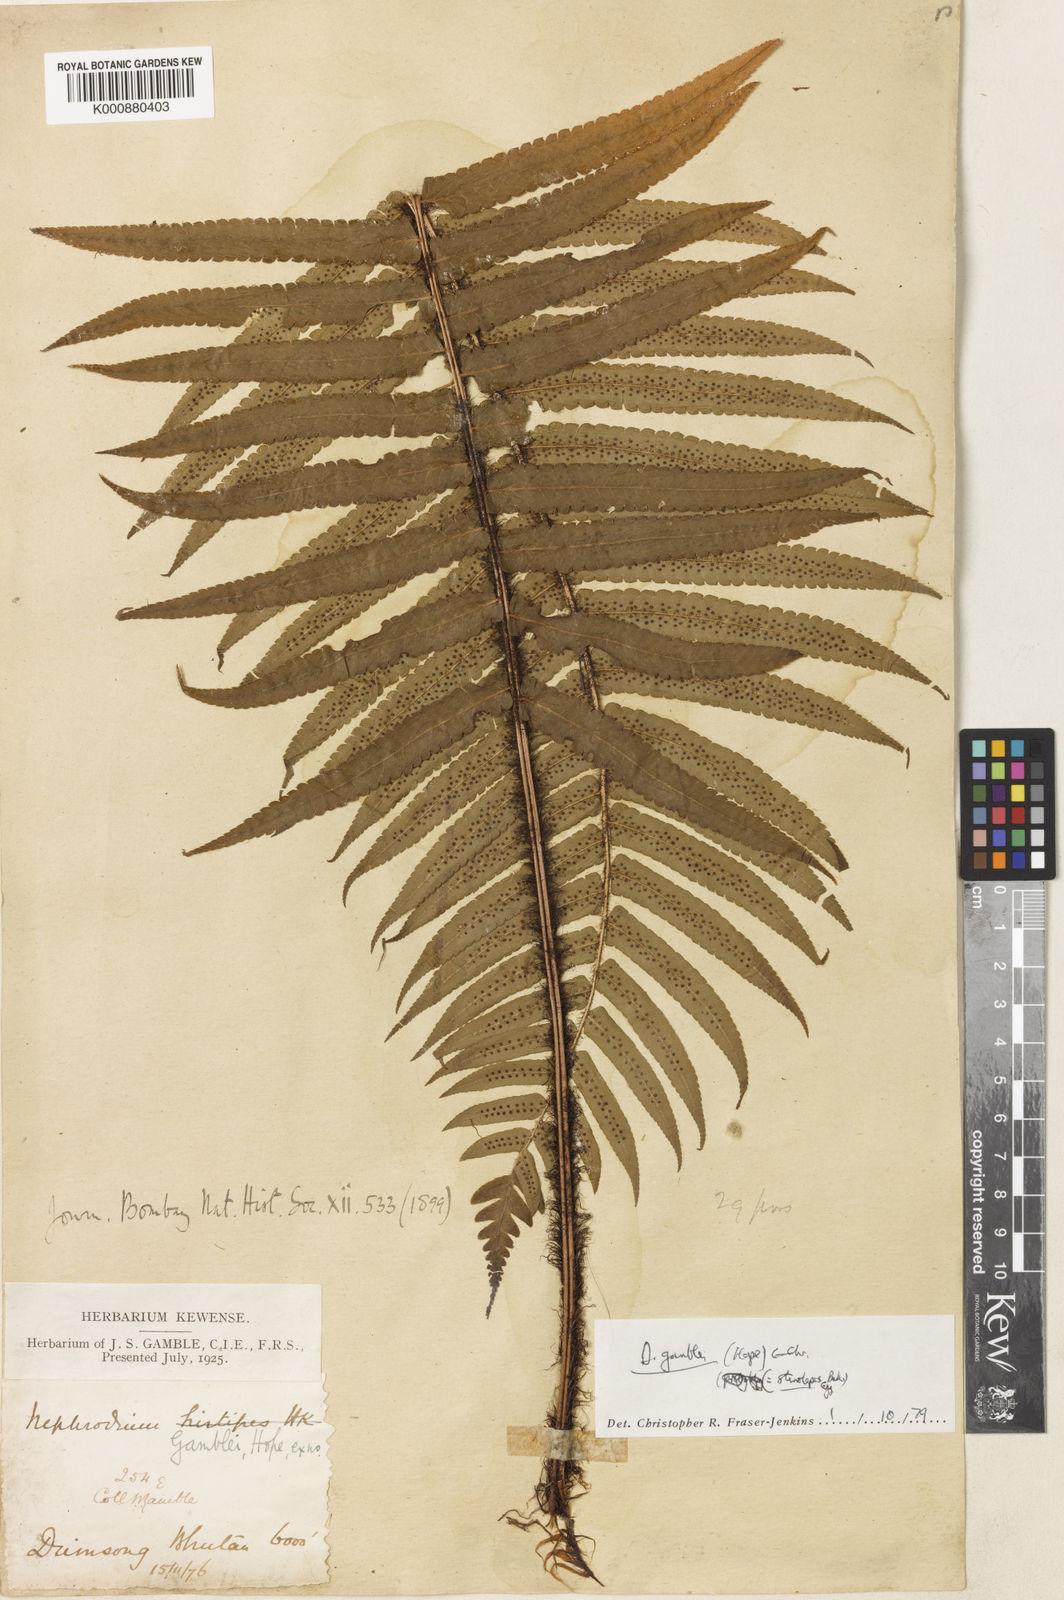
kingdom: Plantae
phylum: Tracheophyta
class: Polypodiopsida
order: Polypodiales
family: Dryopteridaceae
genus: Dryopteris
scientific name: Dryopteris stenolepis
